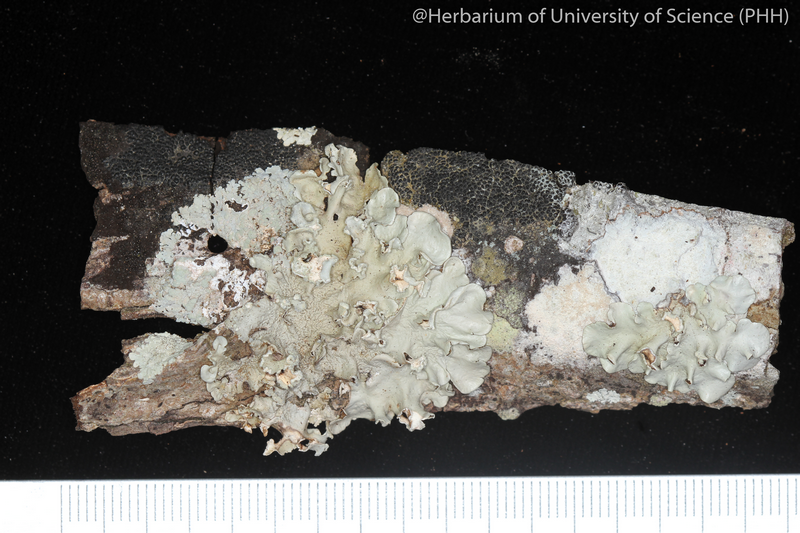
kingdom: Fungi
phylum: Ascomycota
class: Lecanoromycetes
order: Lecanorales
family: Parmeliaceae
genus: Parmotrema
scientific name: Parmotrema
